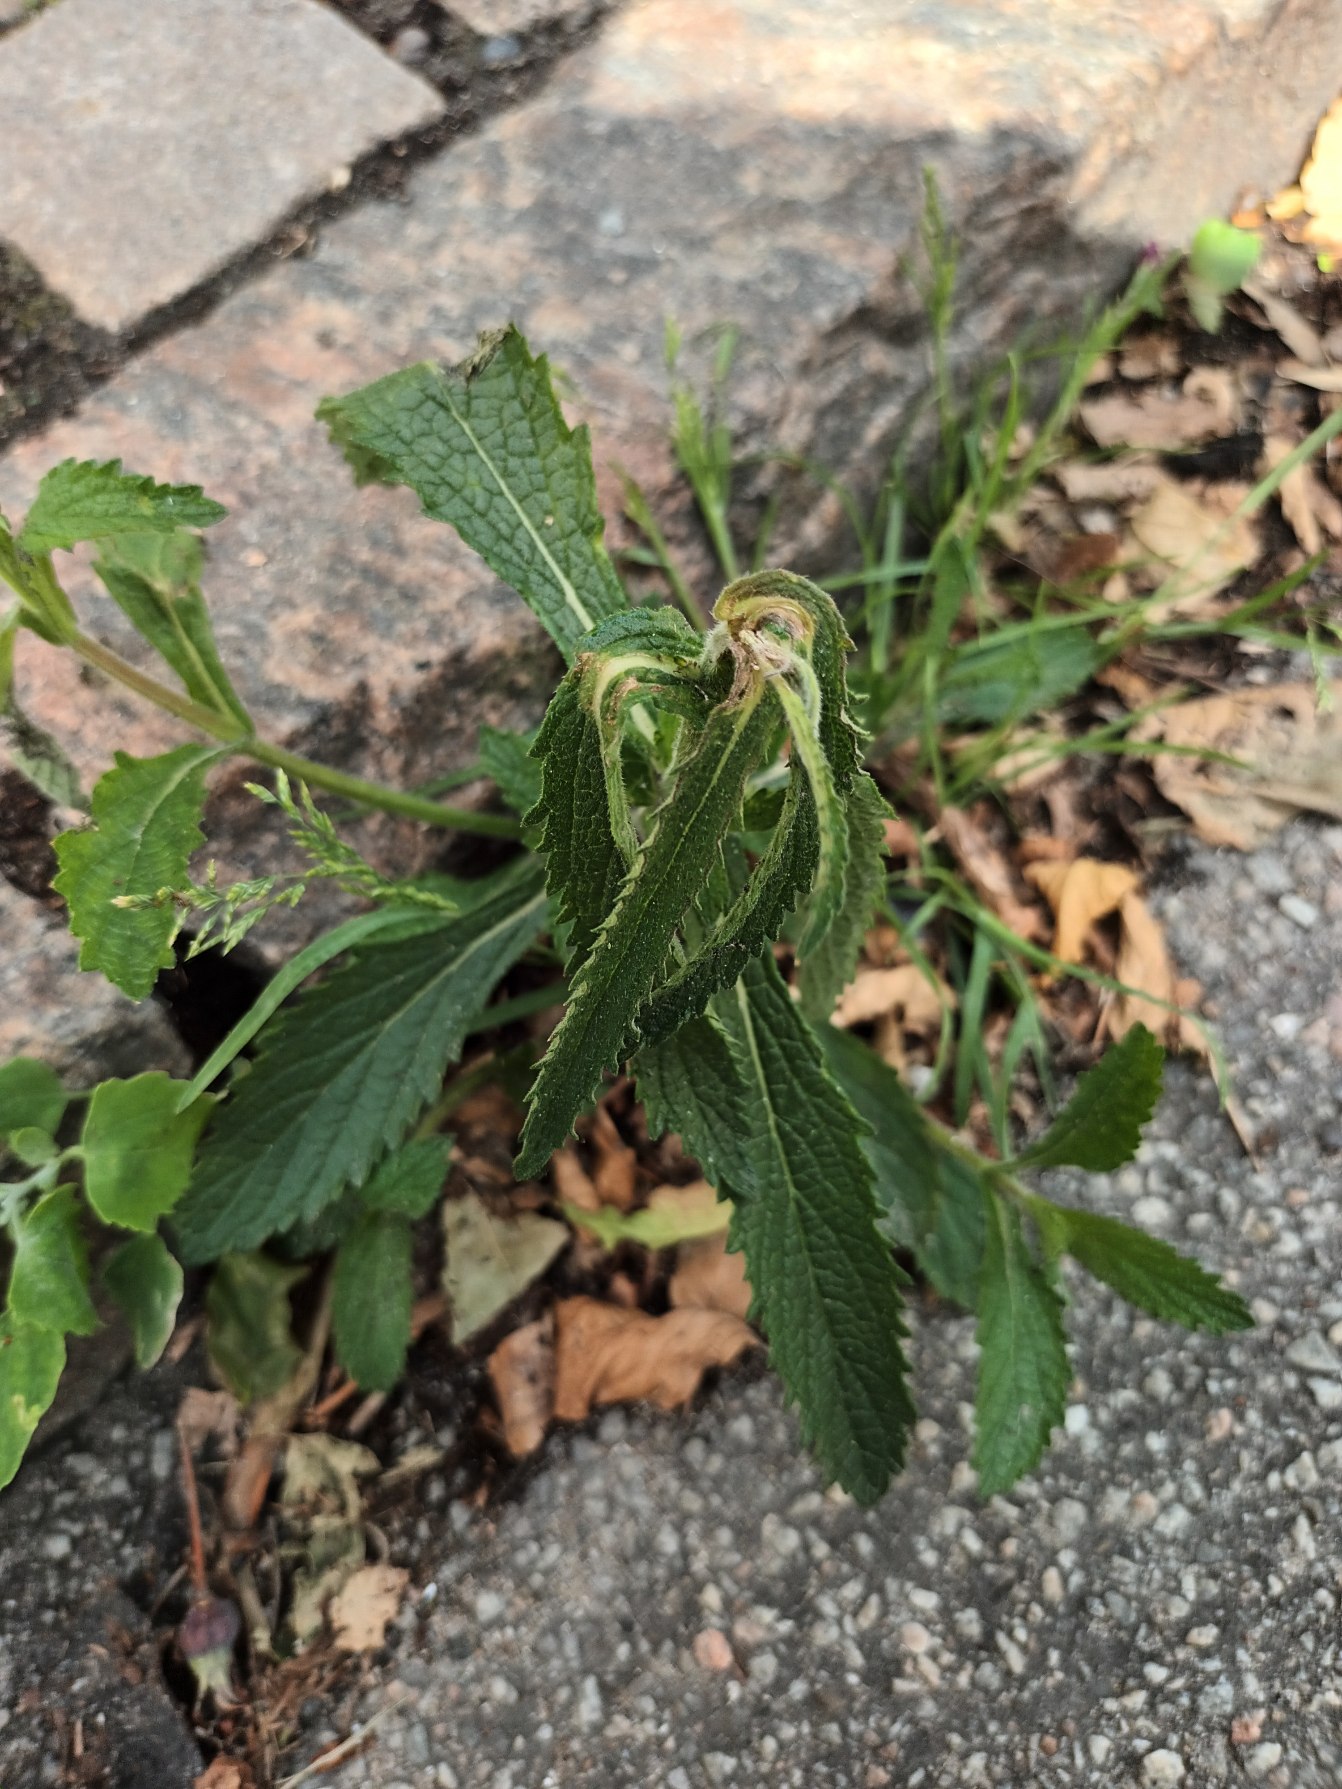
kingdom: Plantae
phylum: Tracheophyta
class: Magnoliopsida
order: Lamiales
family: Verbenaceae
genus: Verbena
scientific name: Verbena bonariensis
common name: Kæmpe-jernurt
